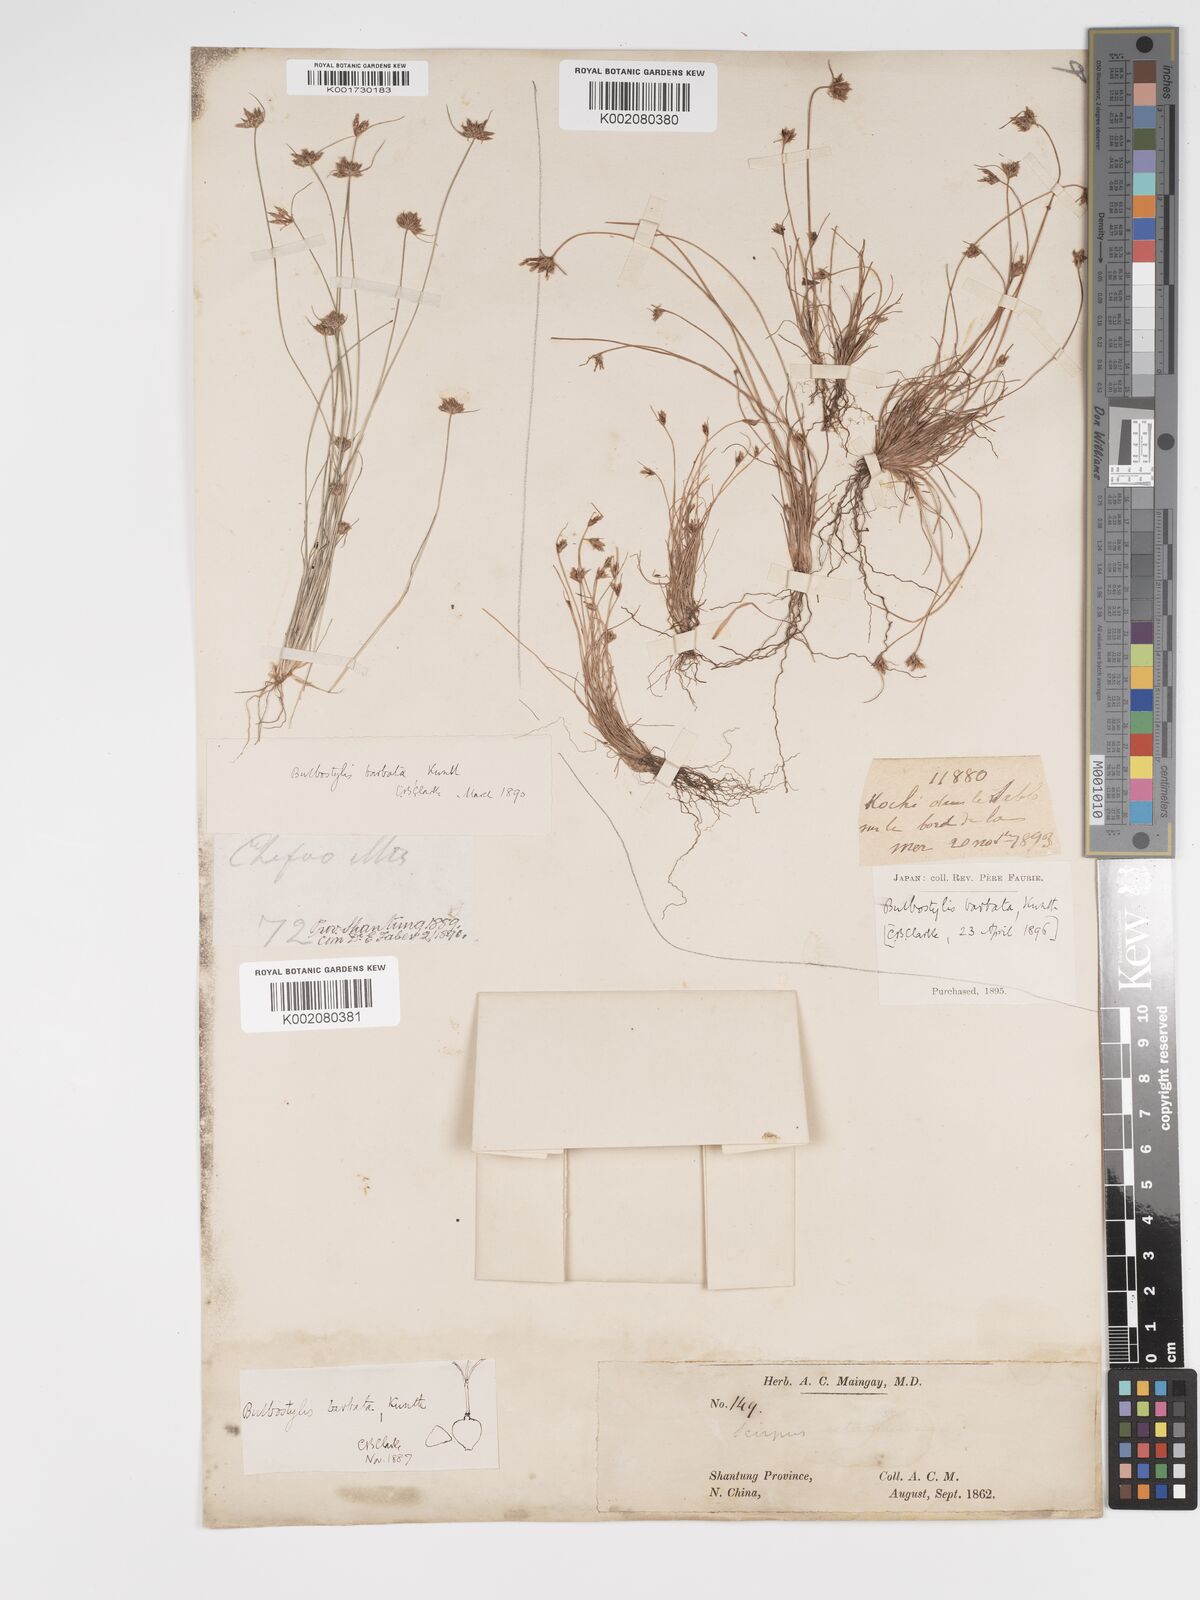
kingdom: Plantae
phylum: Tracheophyta
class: Liliopsida
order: Poales
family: Cyperaceae
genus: Bulbostylis
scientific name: Bulbostylis barbata
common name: Watergrass
